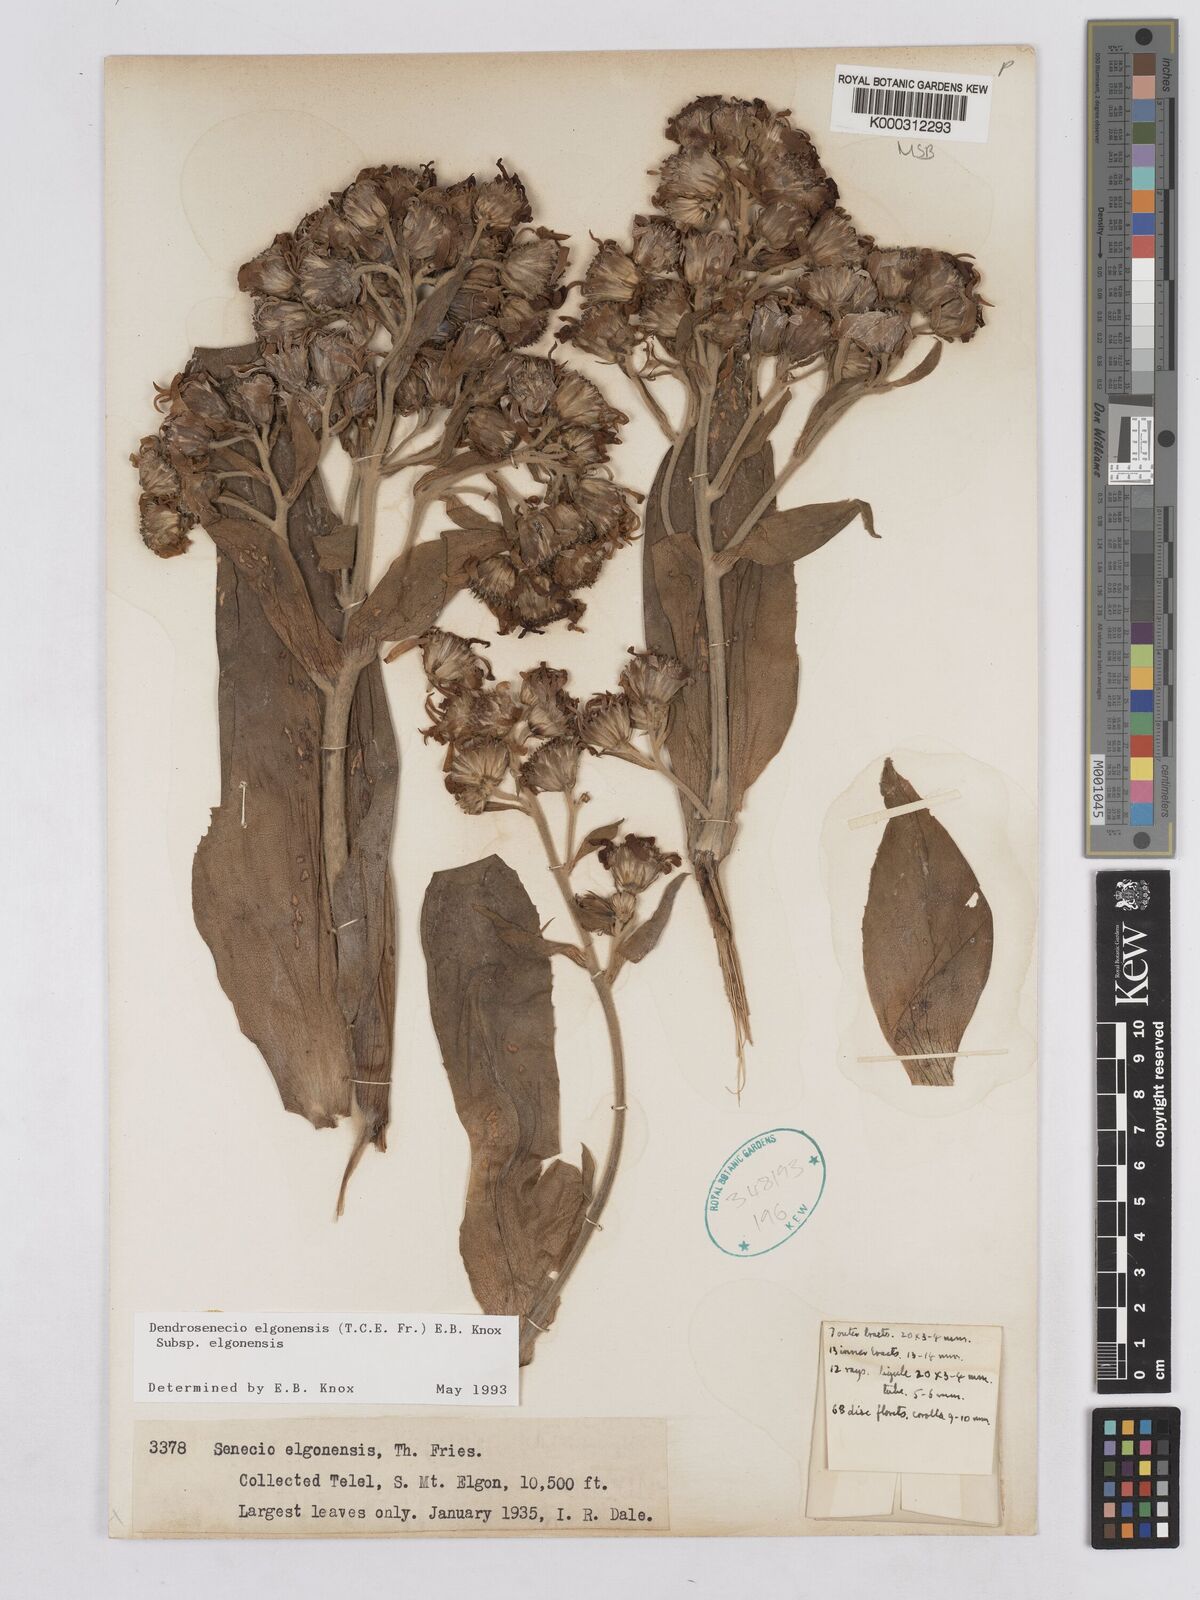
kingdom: Plantae
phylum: Tracheophyta
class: Magnoliopsida
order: Asterales
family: Asteraceae
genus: Dendrosenecio
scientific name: Dendrosenecio elgonensis
